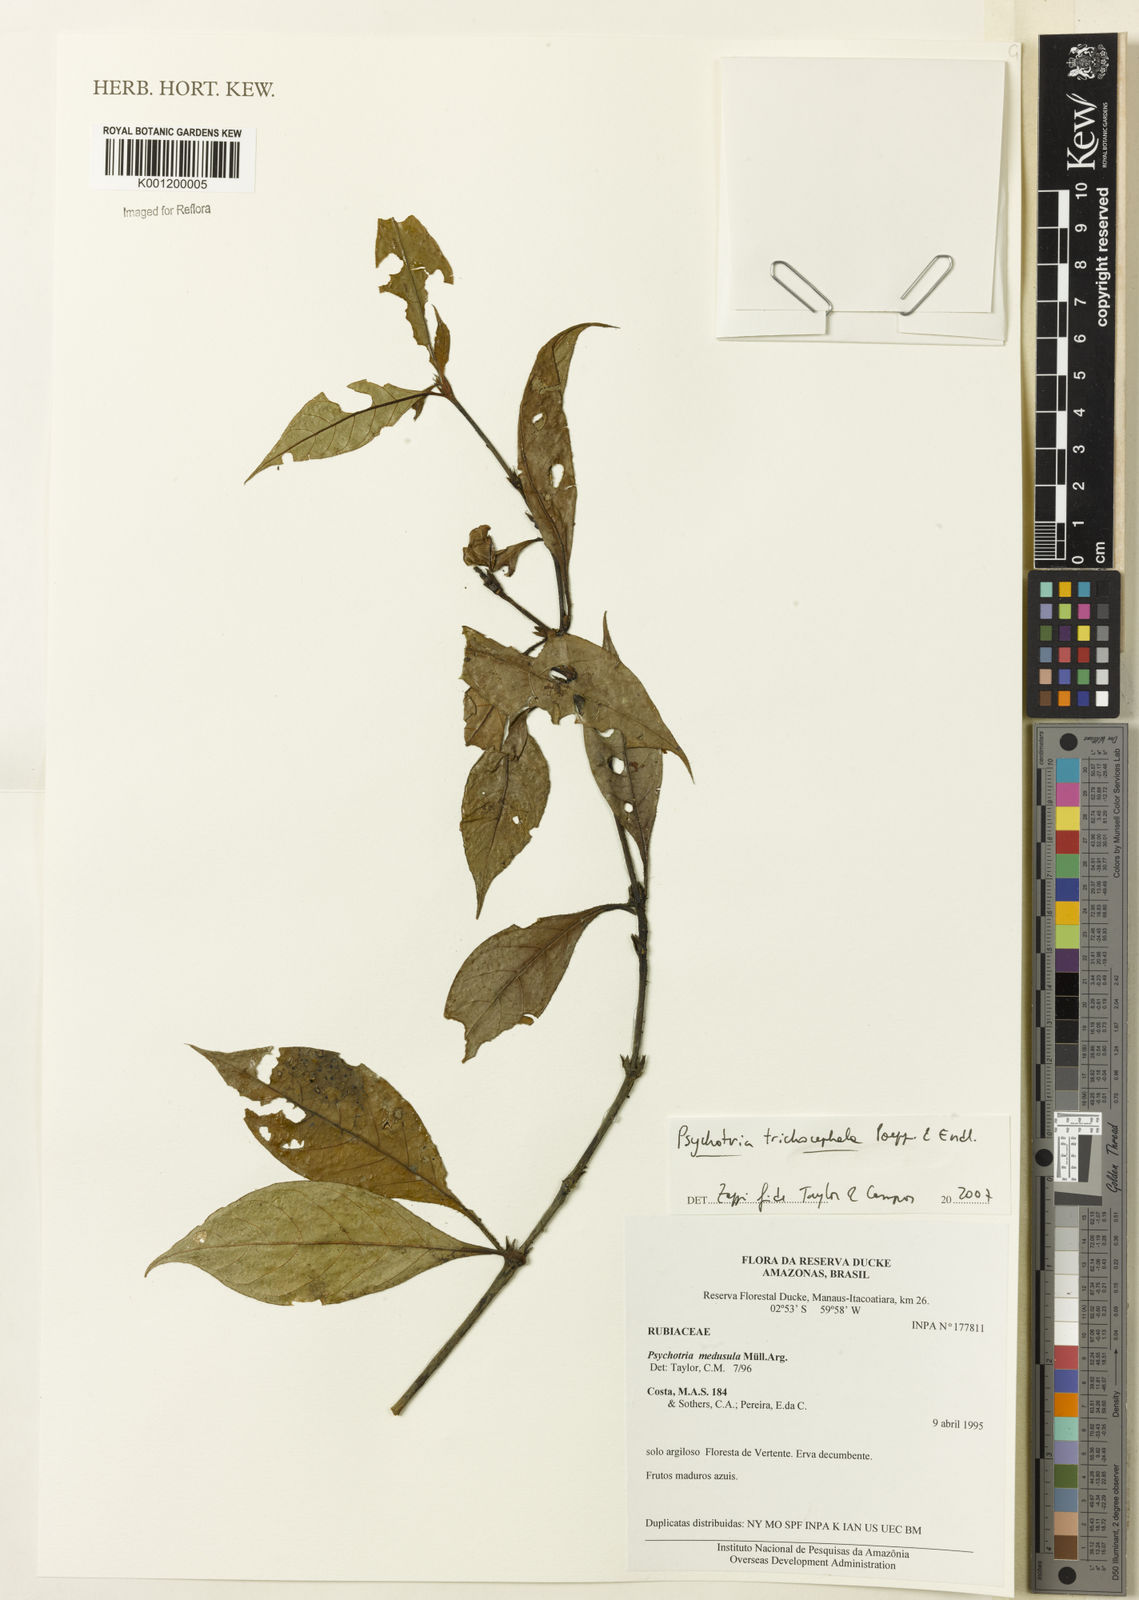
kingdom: Plantae
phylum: Tracheophyta
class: Magnoliopsida
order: Gentianales
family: Rubiaceae
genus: Psychotria
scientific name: Psychotria
